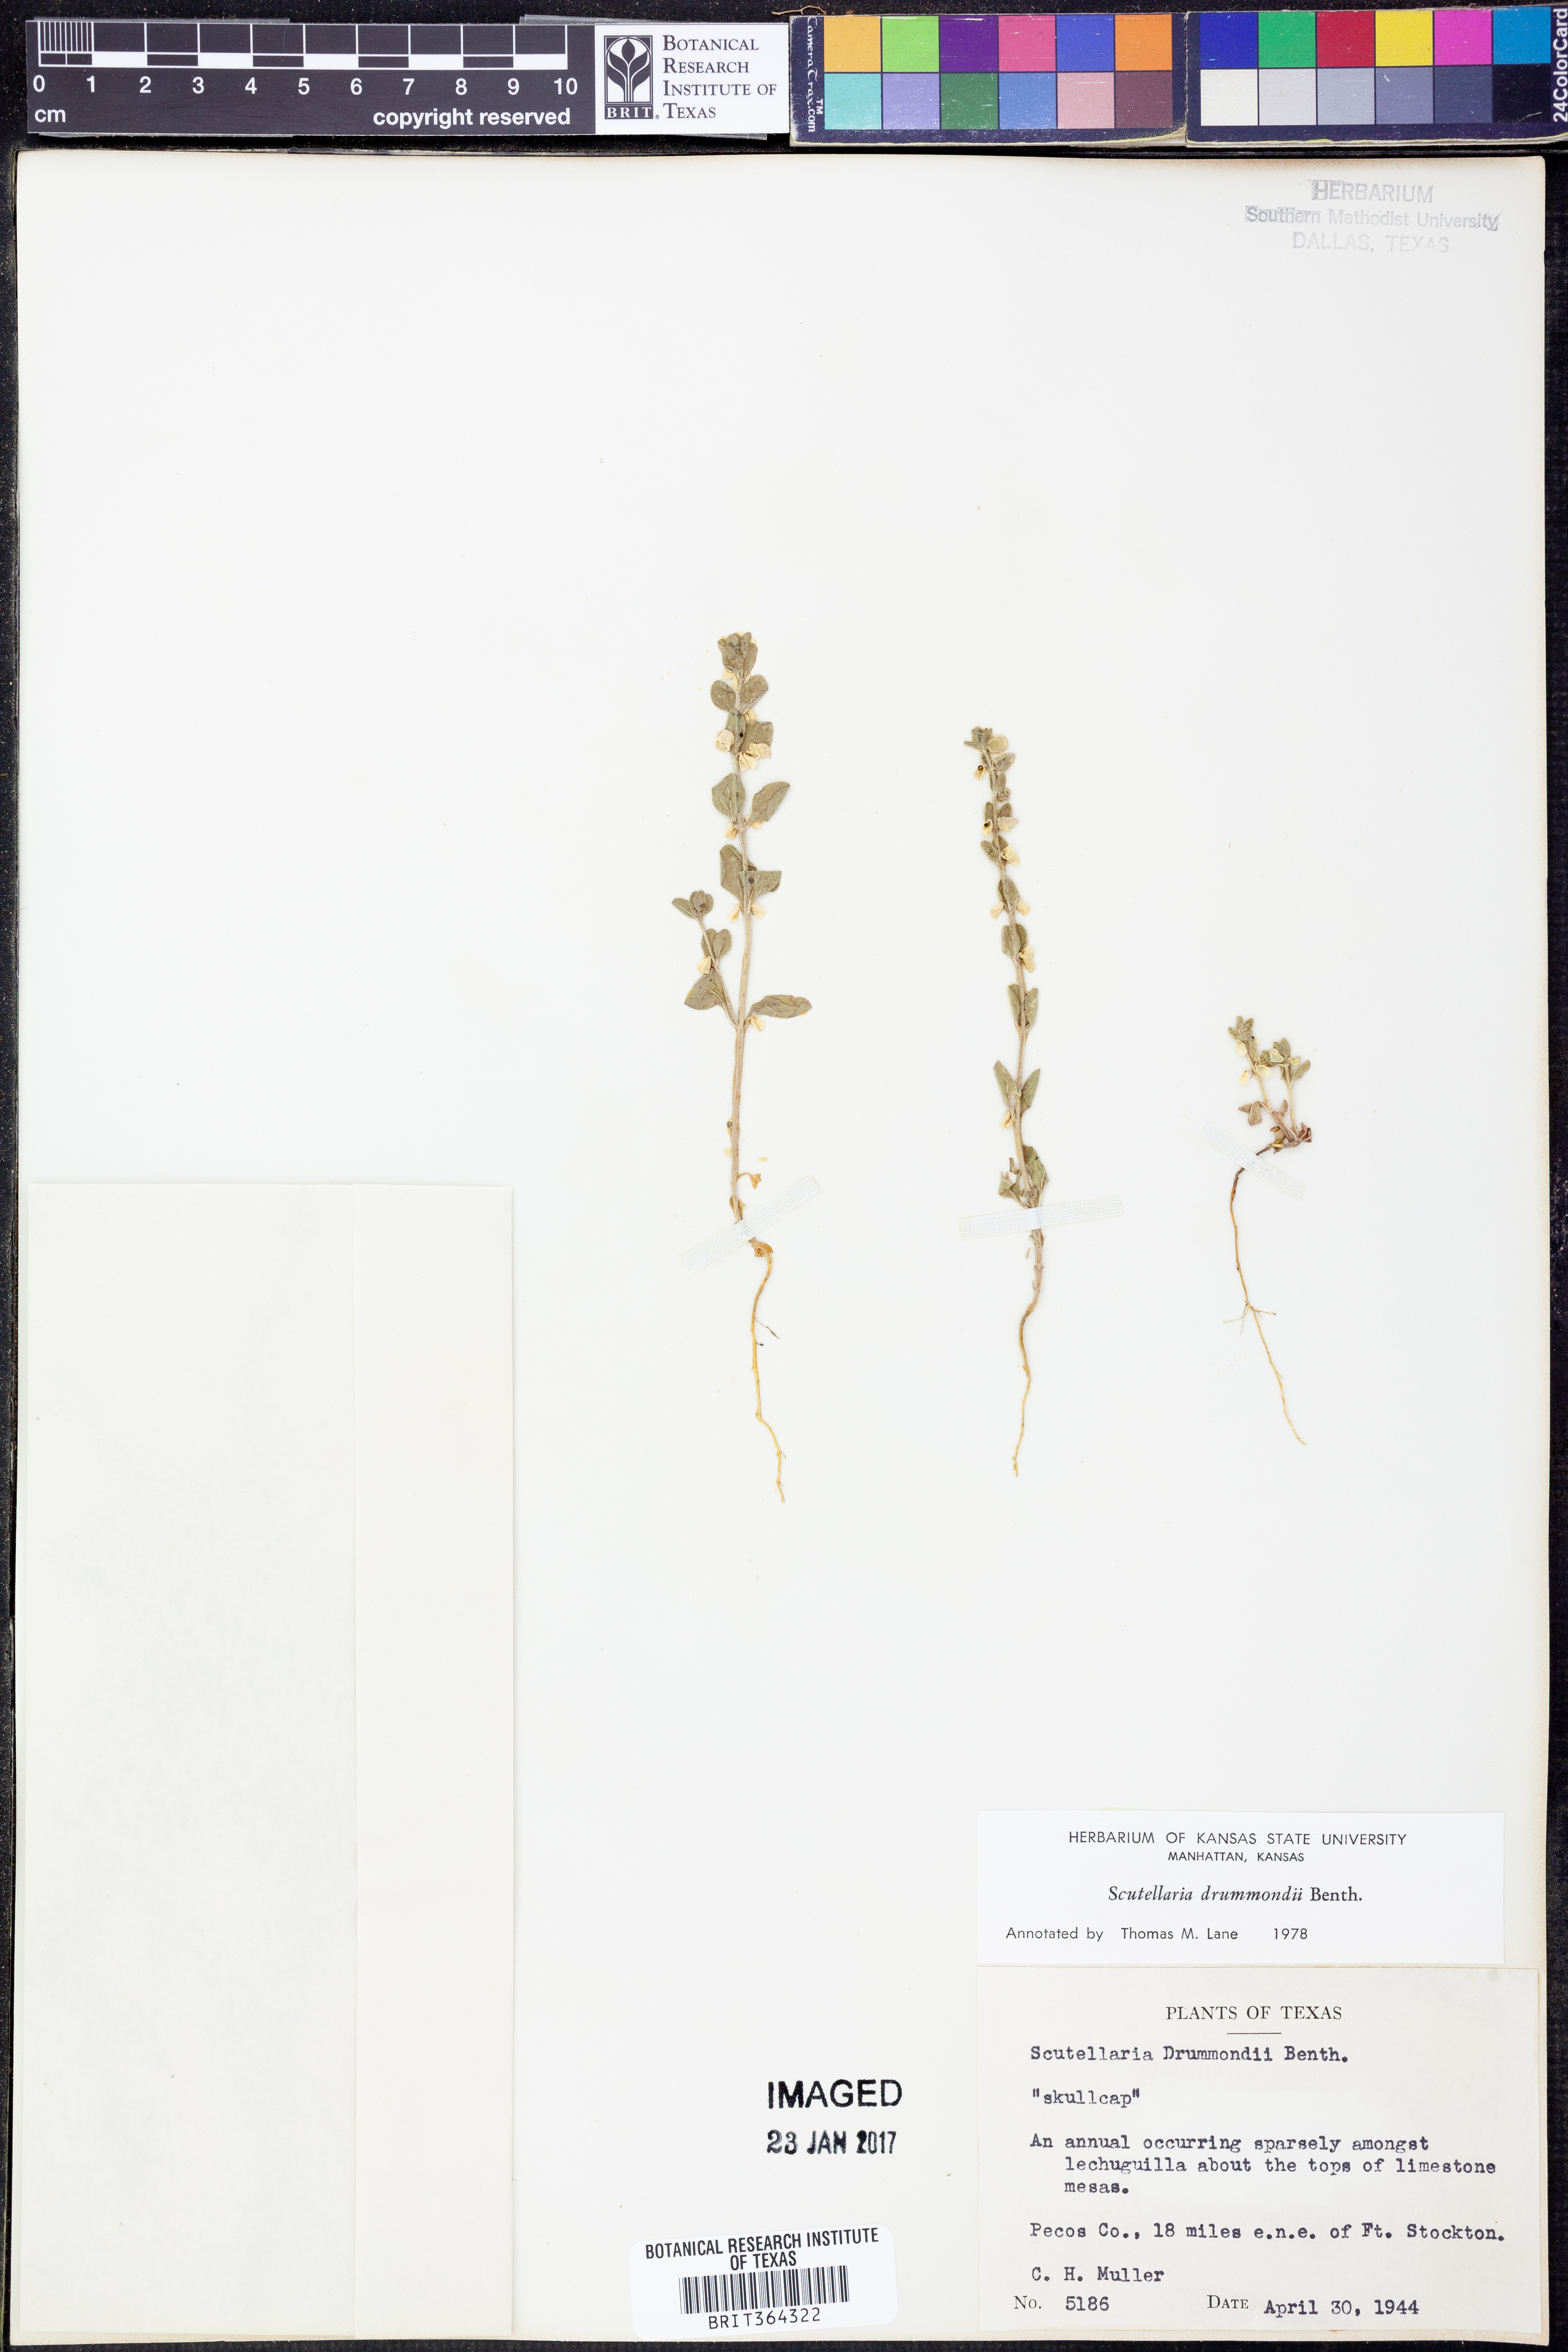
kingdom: Plantae
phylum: Tracheophyta
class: Magnoliopsida
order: Lamiales
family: Lamiaceae
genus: Scutellaria
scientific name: Scutellaria drummondii
